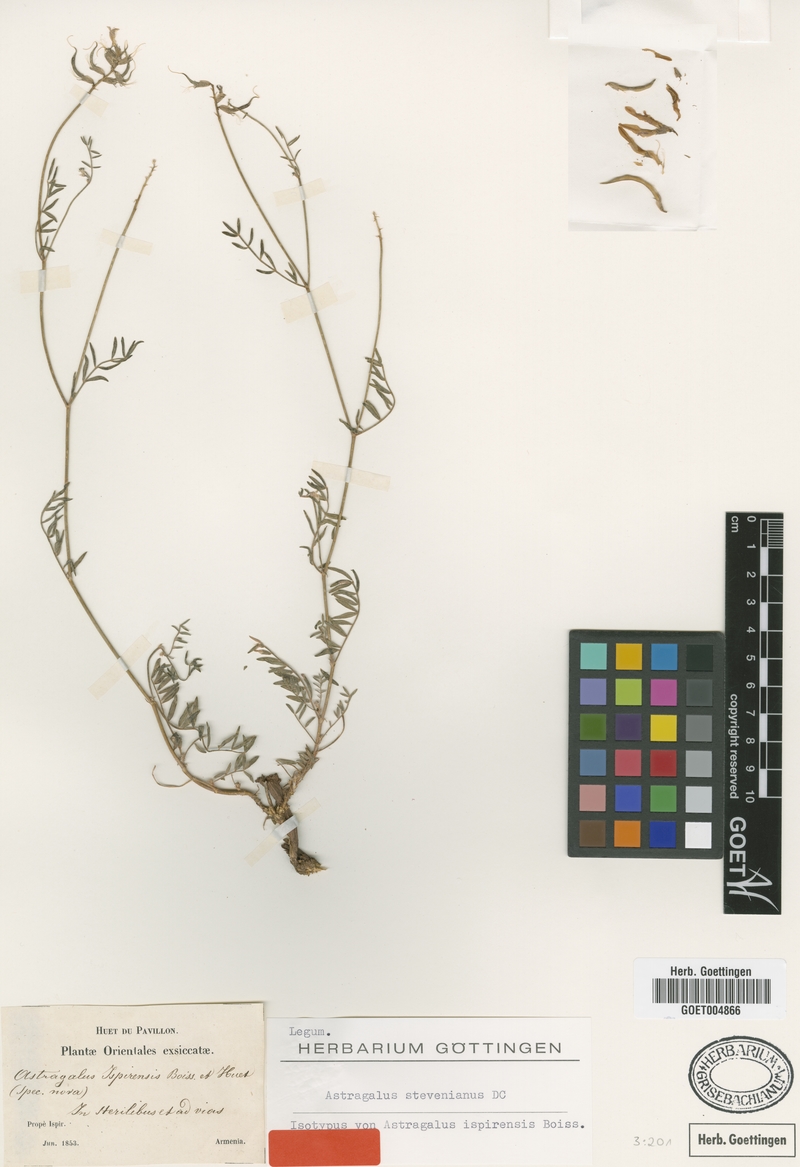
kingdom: Plantae
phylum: Tracheophyta
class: Magnoliopsida
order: Fabales
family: Fabaceae
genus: Astragalus
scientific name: Astragalus stevenianus
